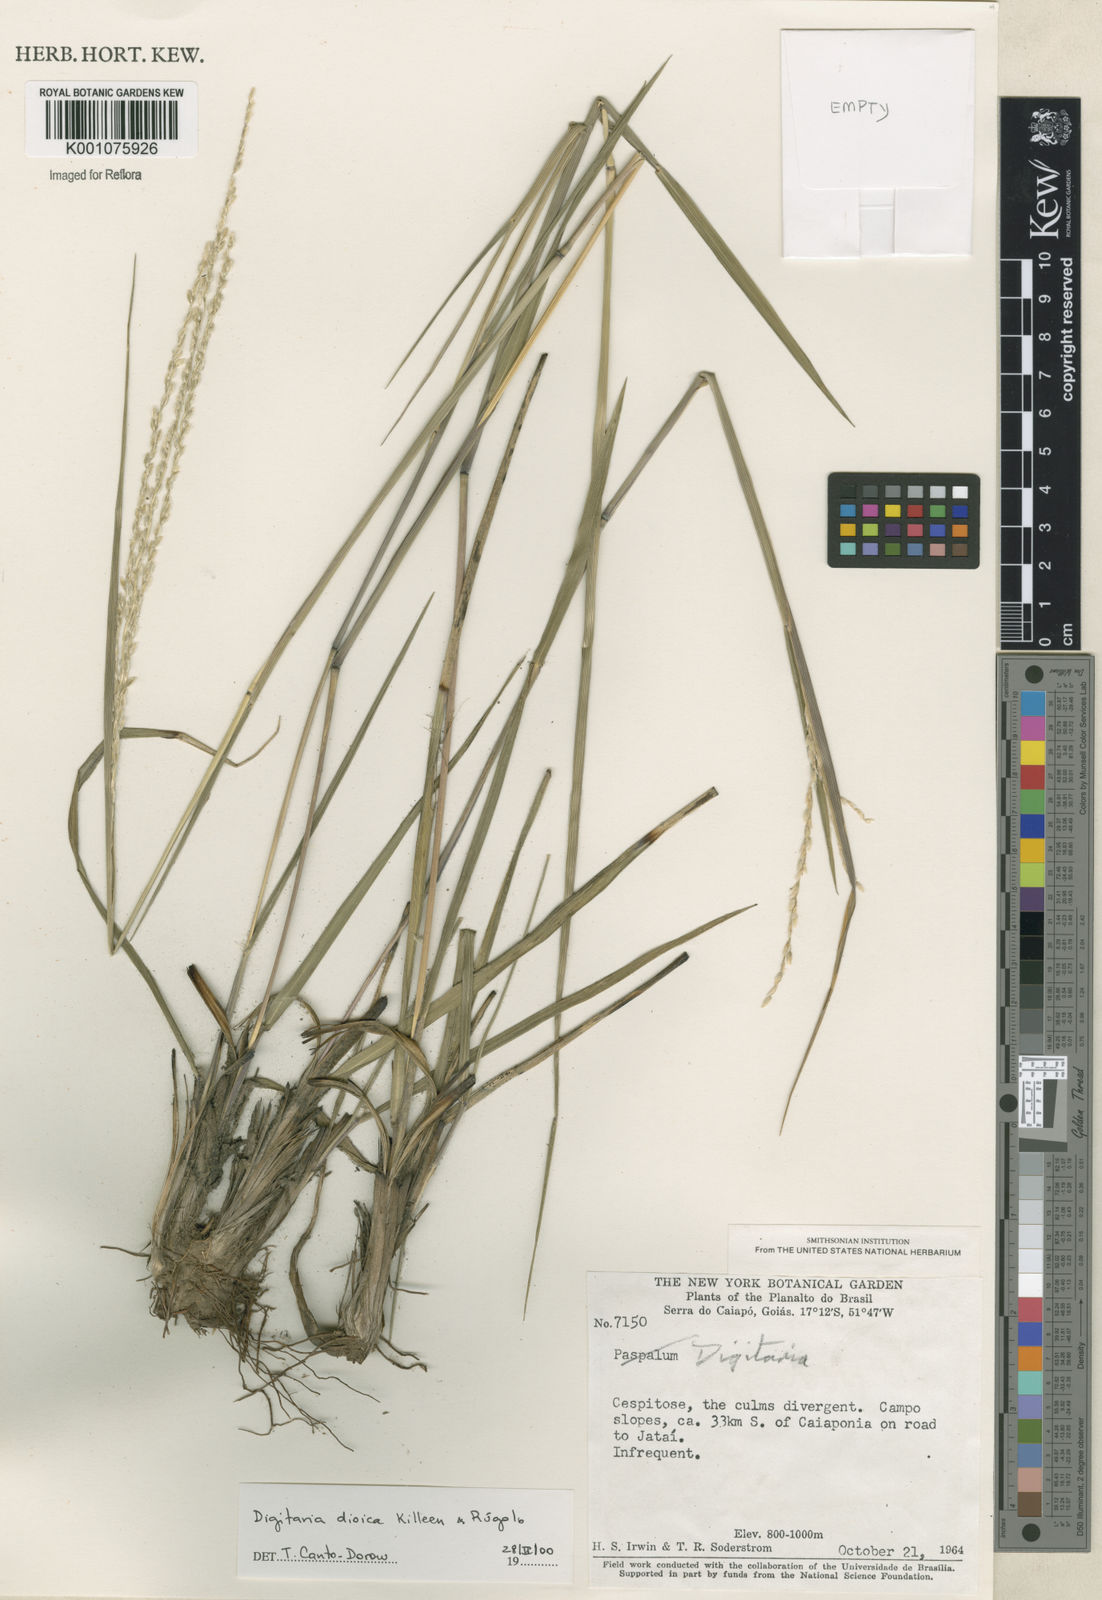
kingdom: Plantae
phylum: Tracheophyta
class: Liliopsida
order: Poales
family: Poaceae
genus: Digitaria
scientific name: Digitaria
